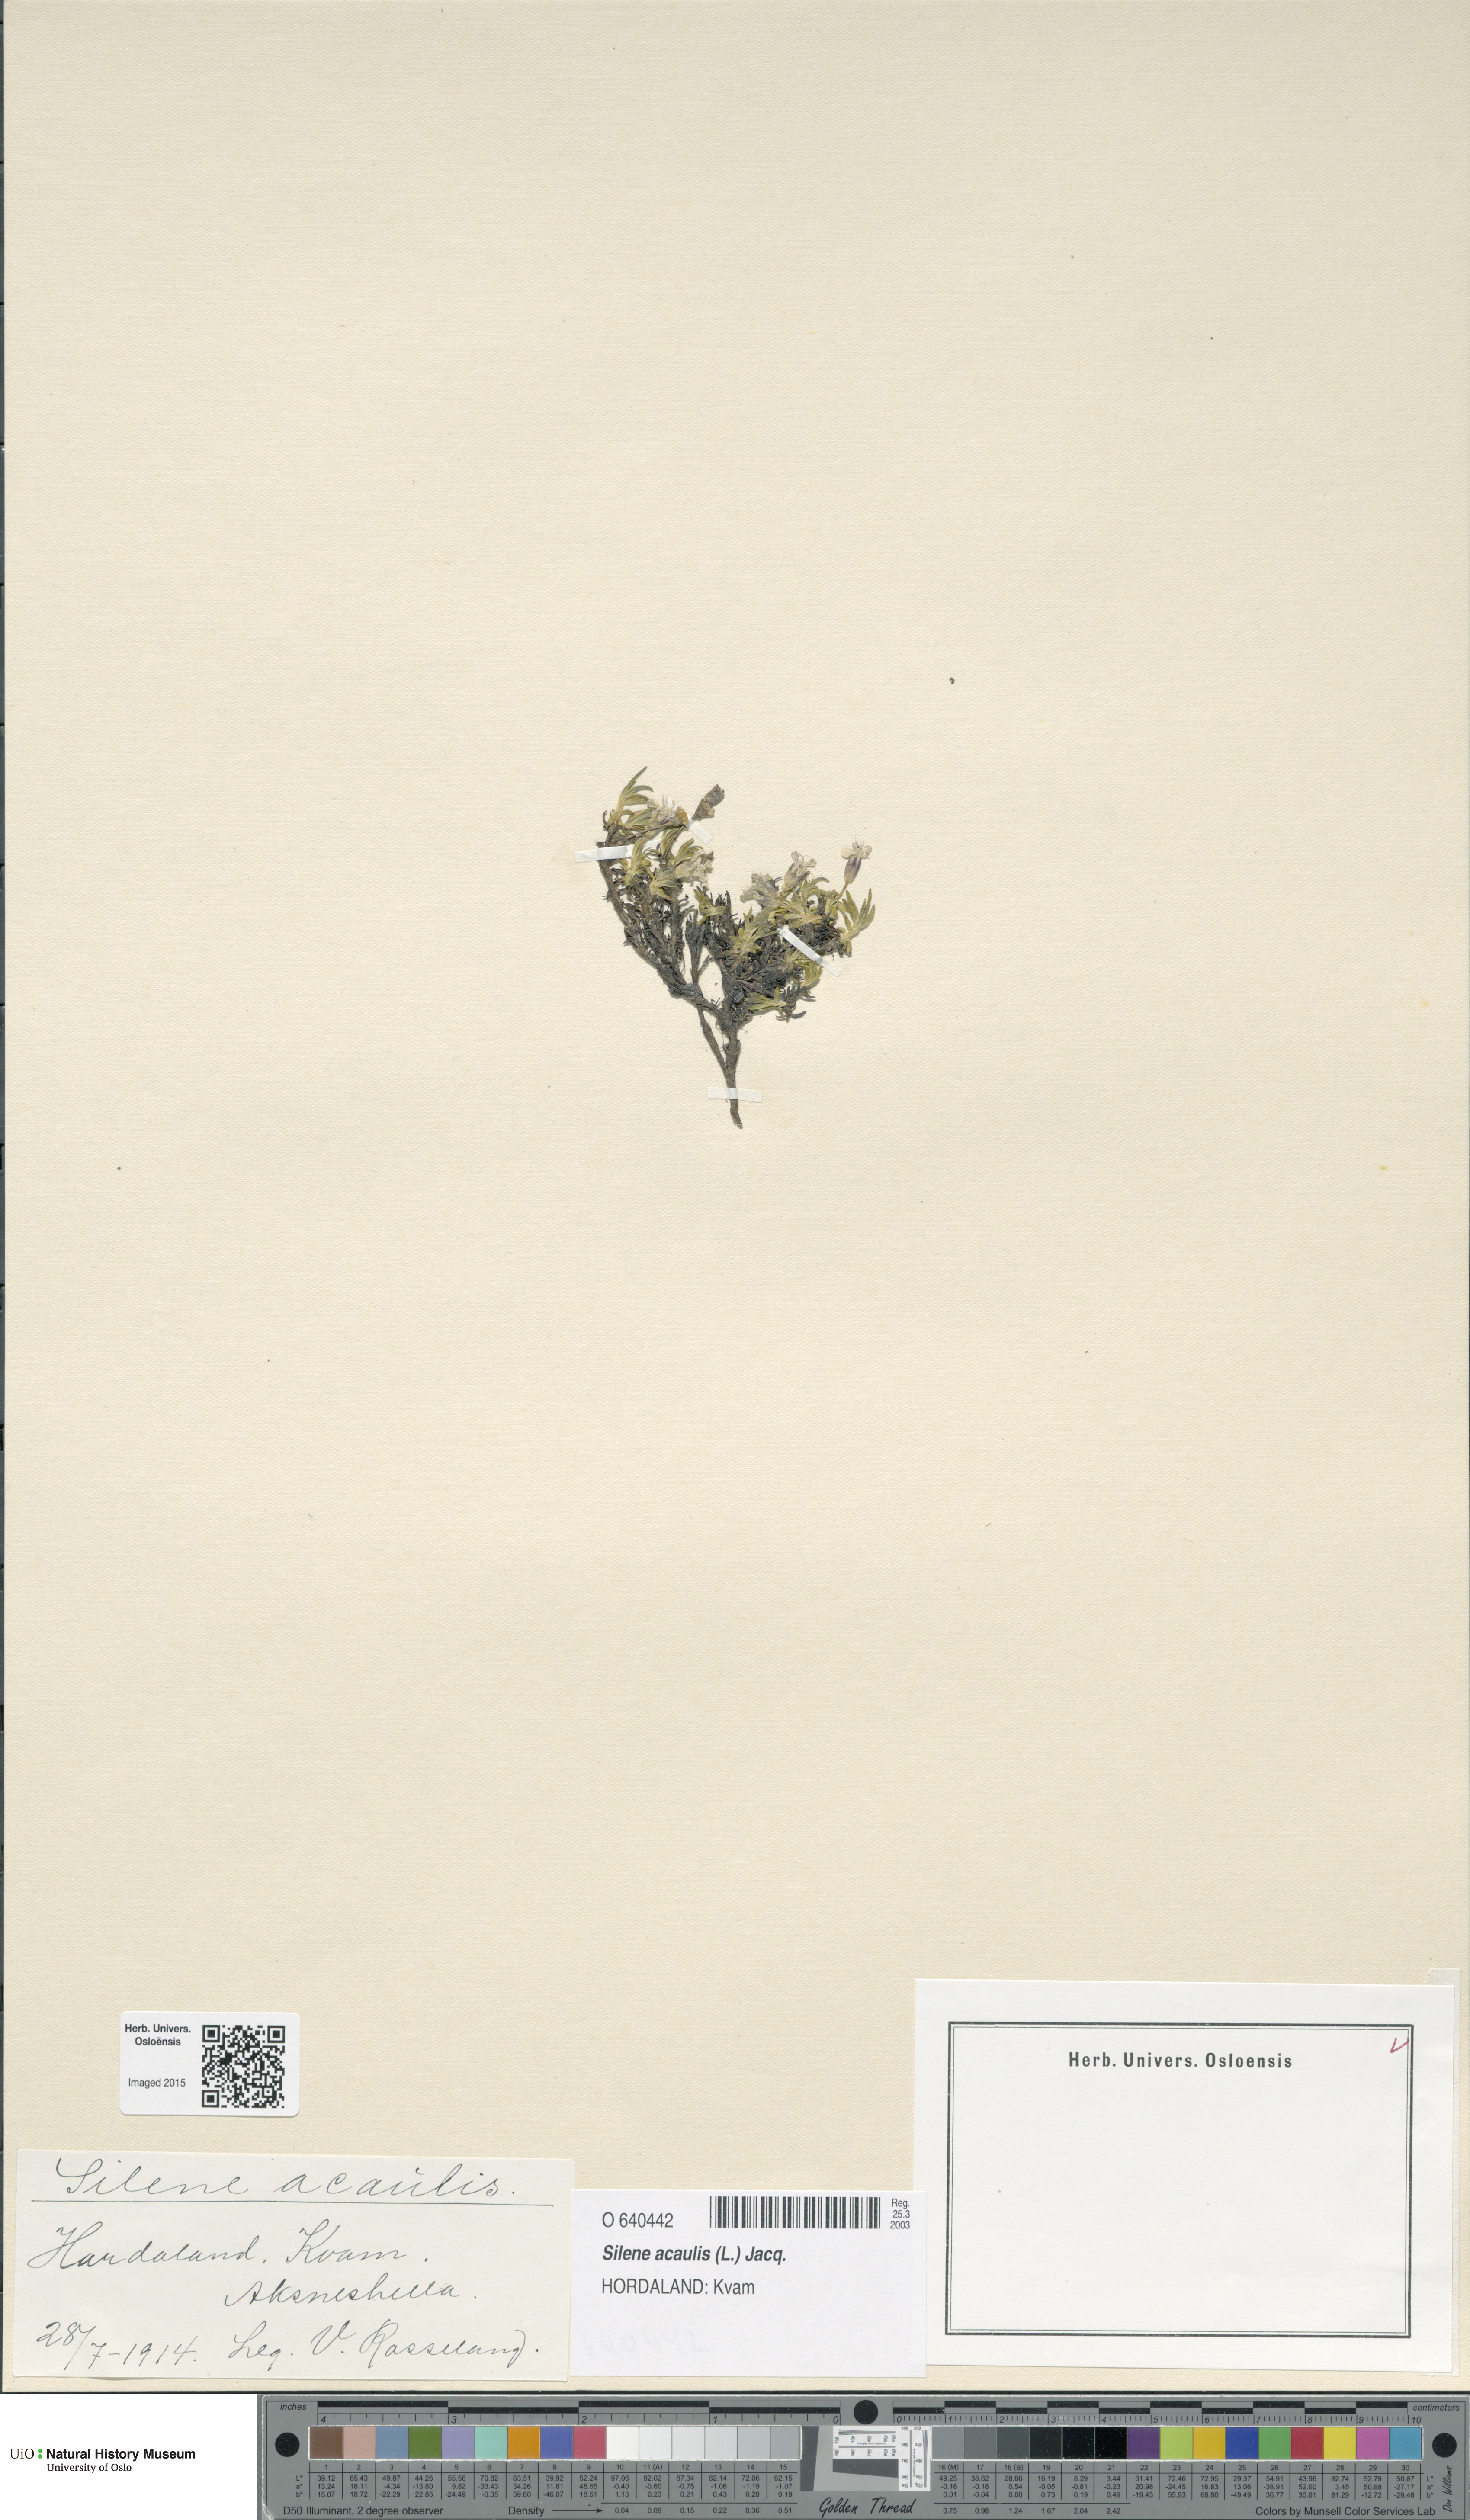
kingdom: Plantae
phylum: Tracheophyta
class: Magnoliopsida
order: Caryophyllales
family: Caryophyllaceae
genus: Silene
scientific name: Silene acaulis
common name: Moss campion
